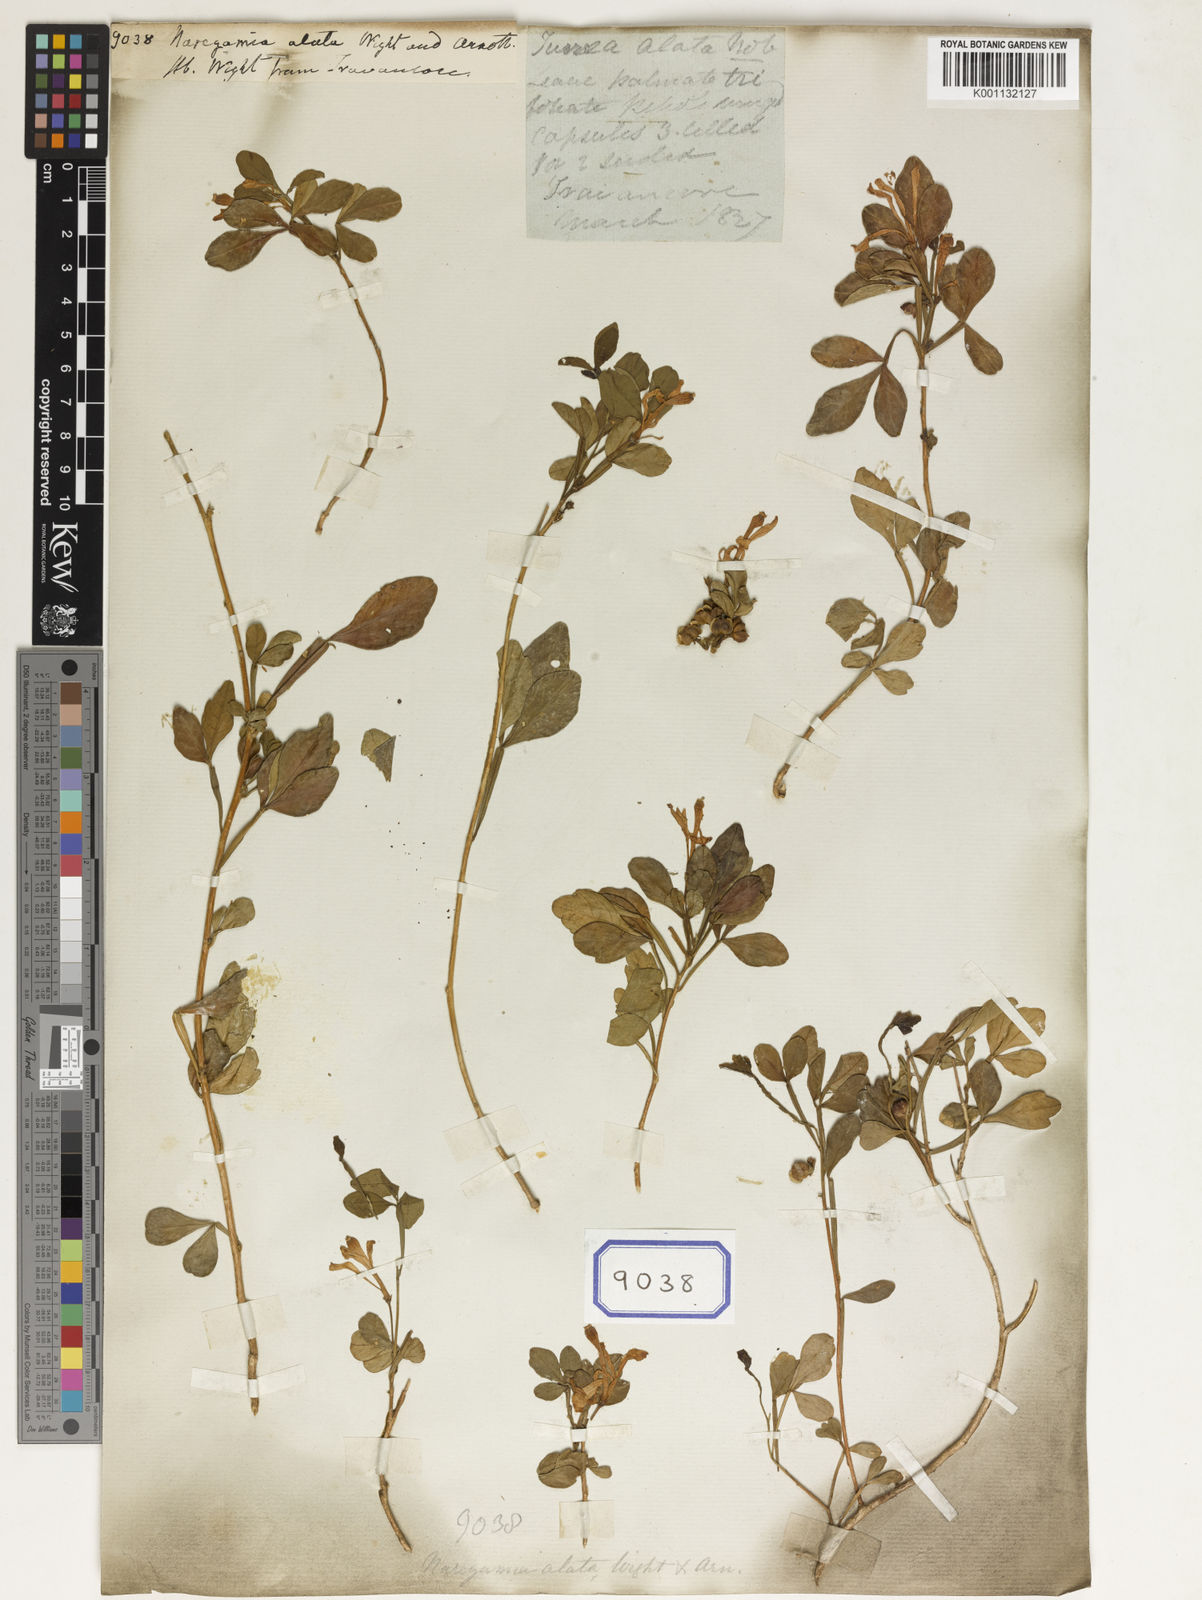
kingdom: Plantae
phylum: Tracheophyta
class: Magnoliopsida
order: Sapindales
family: Meliaceae
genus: Naregamia
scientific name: Naregamia alata
